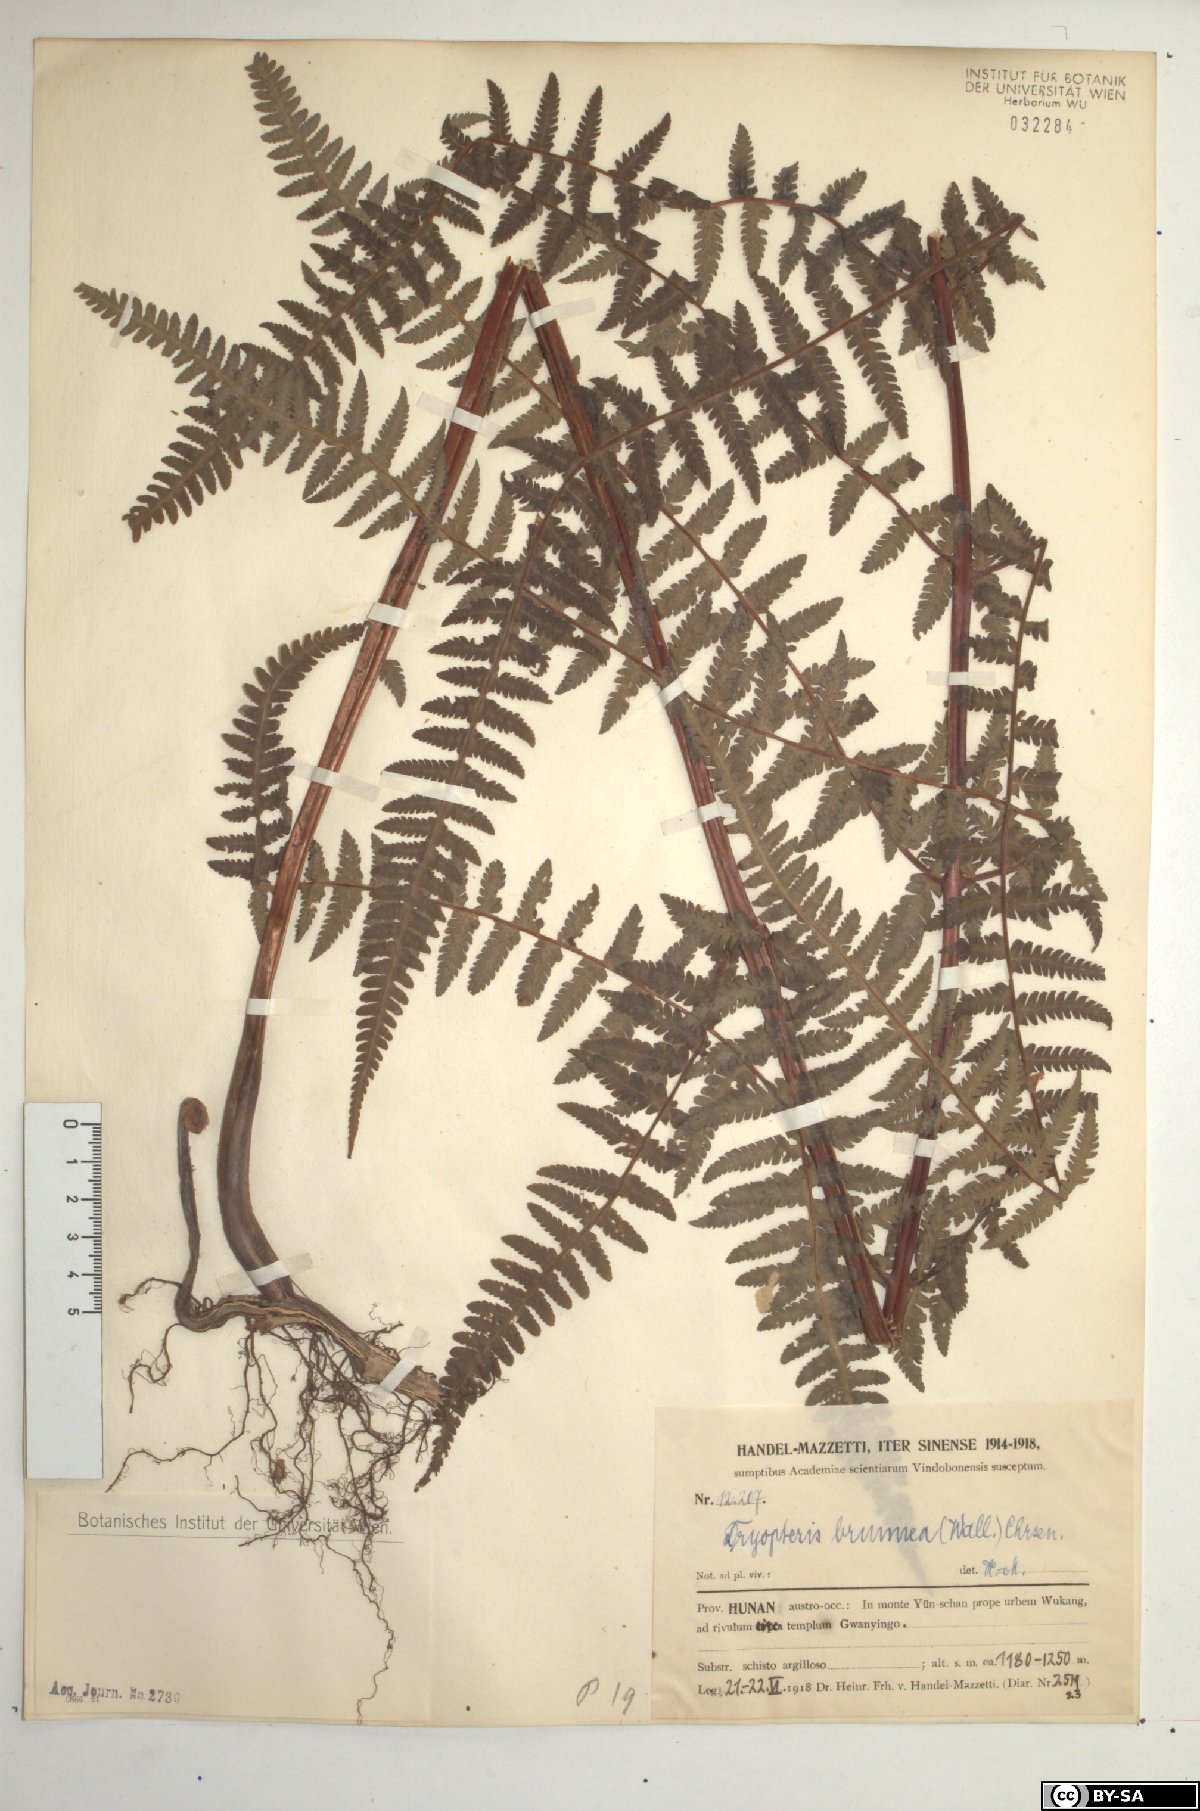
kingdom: Plantae
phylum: Tracheophyta
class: Polypodiopsida
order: Polypodiales
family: Thelypteridaceae
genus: Pseudophegopteris
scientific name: Pseudophegopteris pyrrhorachis
